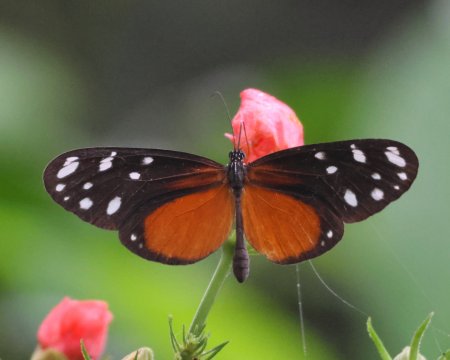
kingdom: Animalia
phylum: Arthropoda
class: Insecta
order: Lepidoptera
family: Nymphalidae
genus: Hyposcada
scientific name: Hyposcada virginiana
